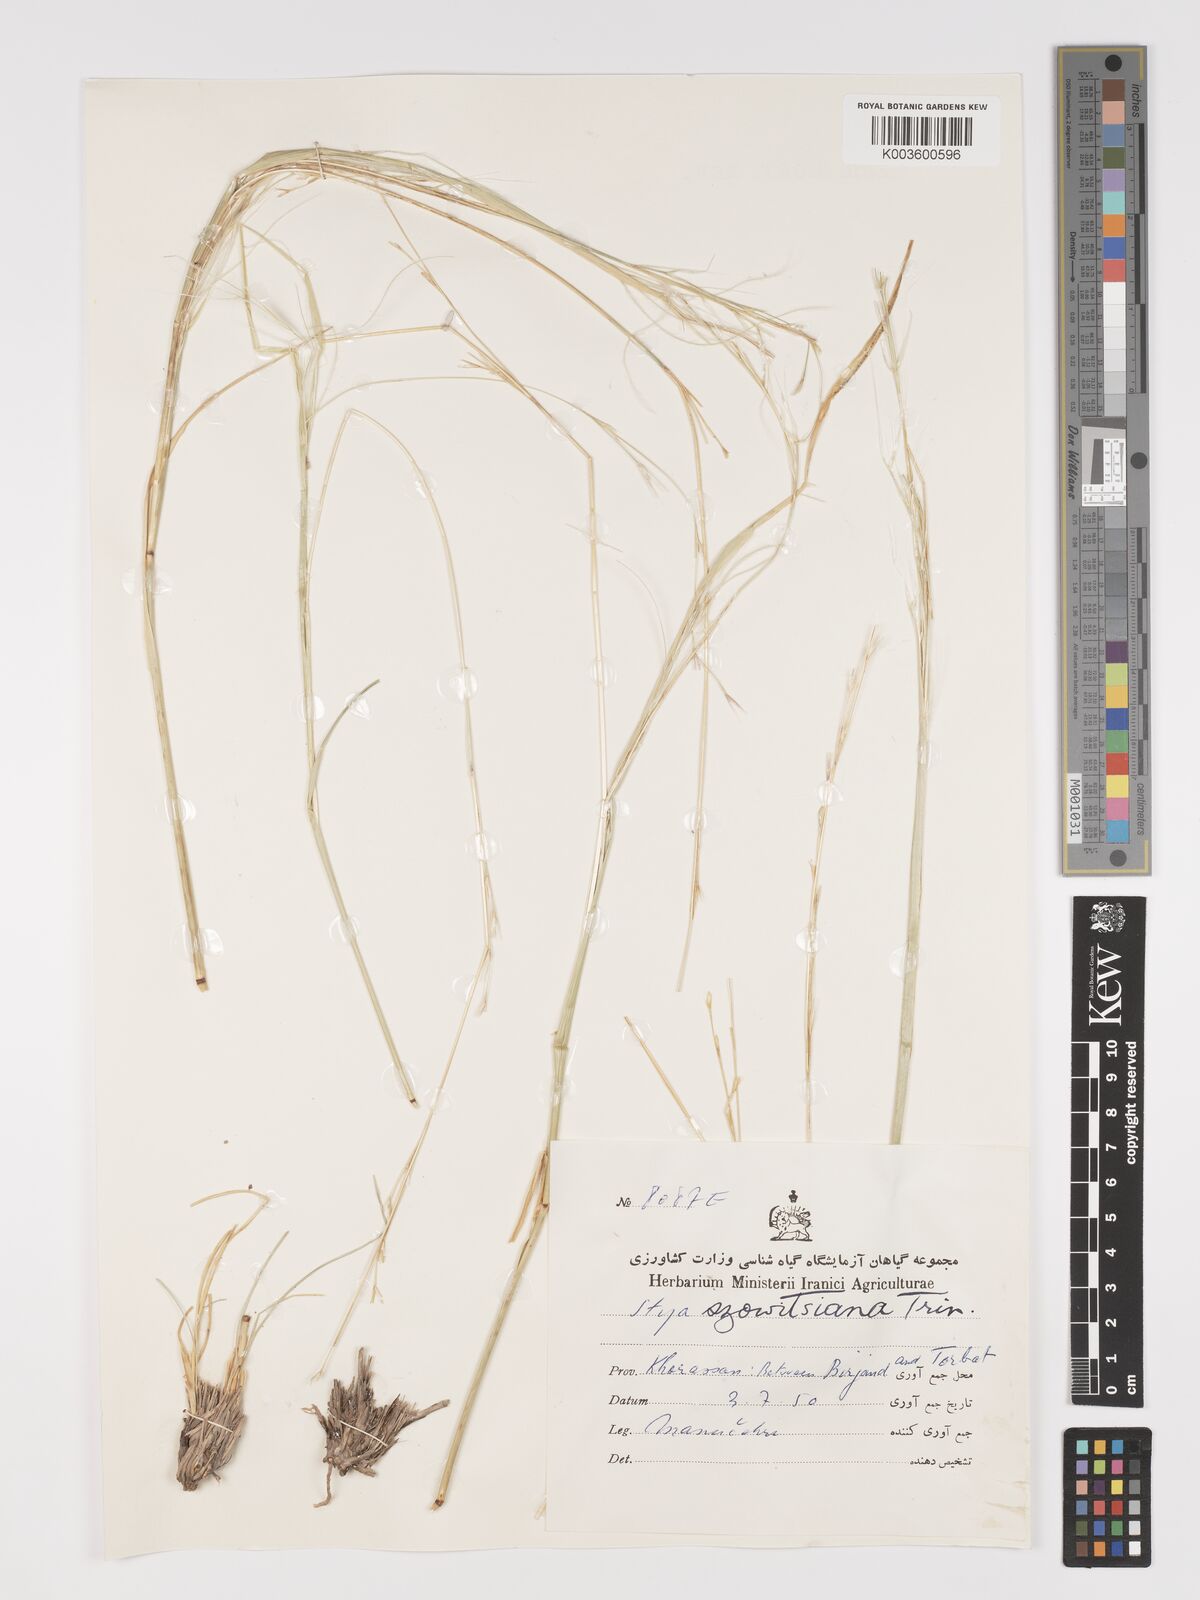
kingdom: Plantae
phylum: Tracheophyta
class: Liliopsida
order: Poales
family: Poaceae
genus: Stipa
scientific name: Stipa barbata
